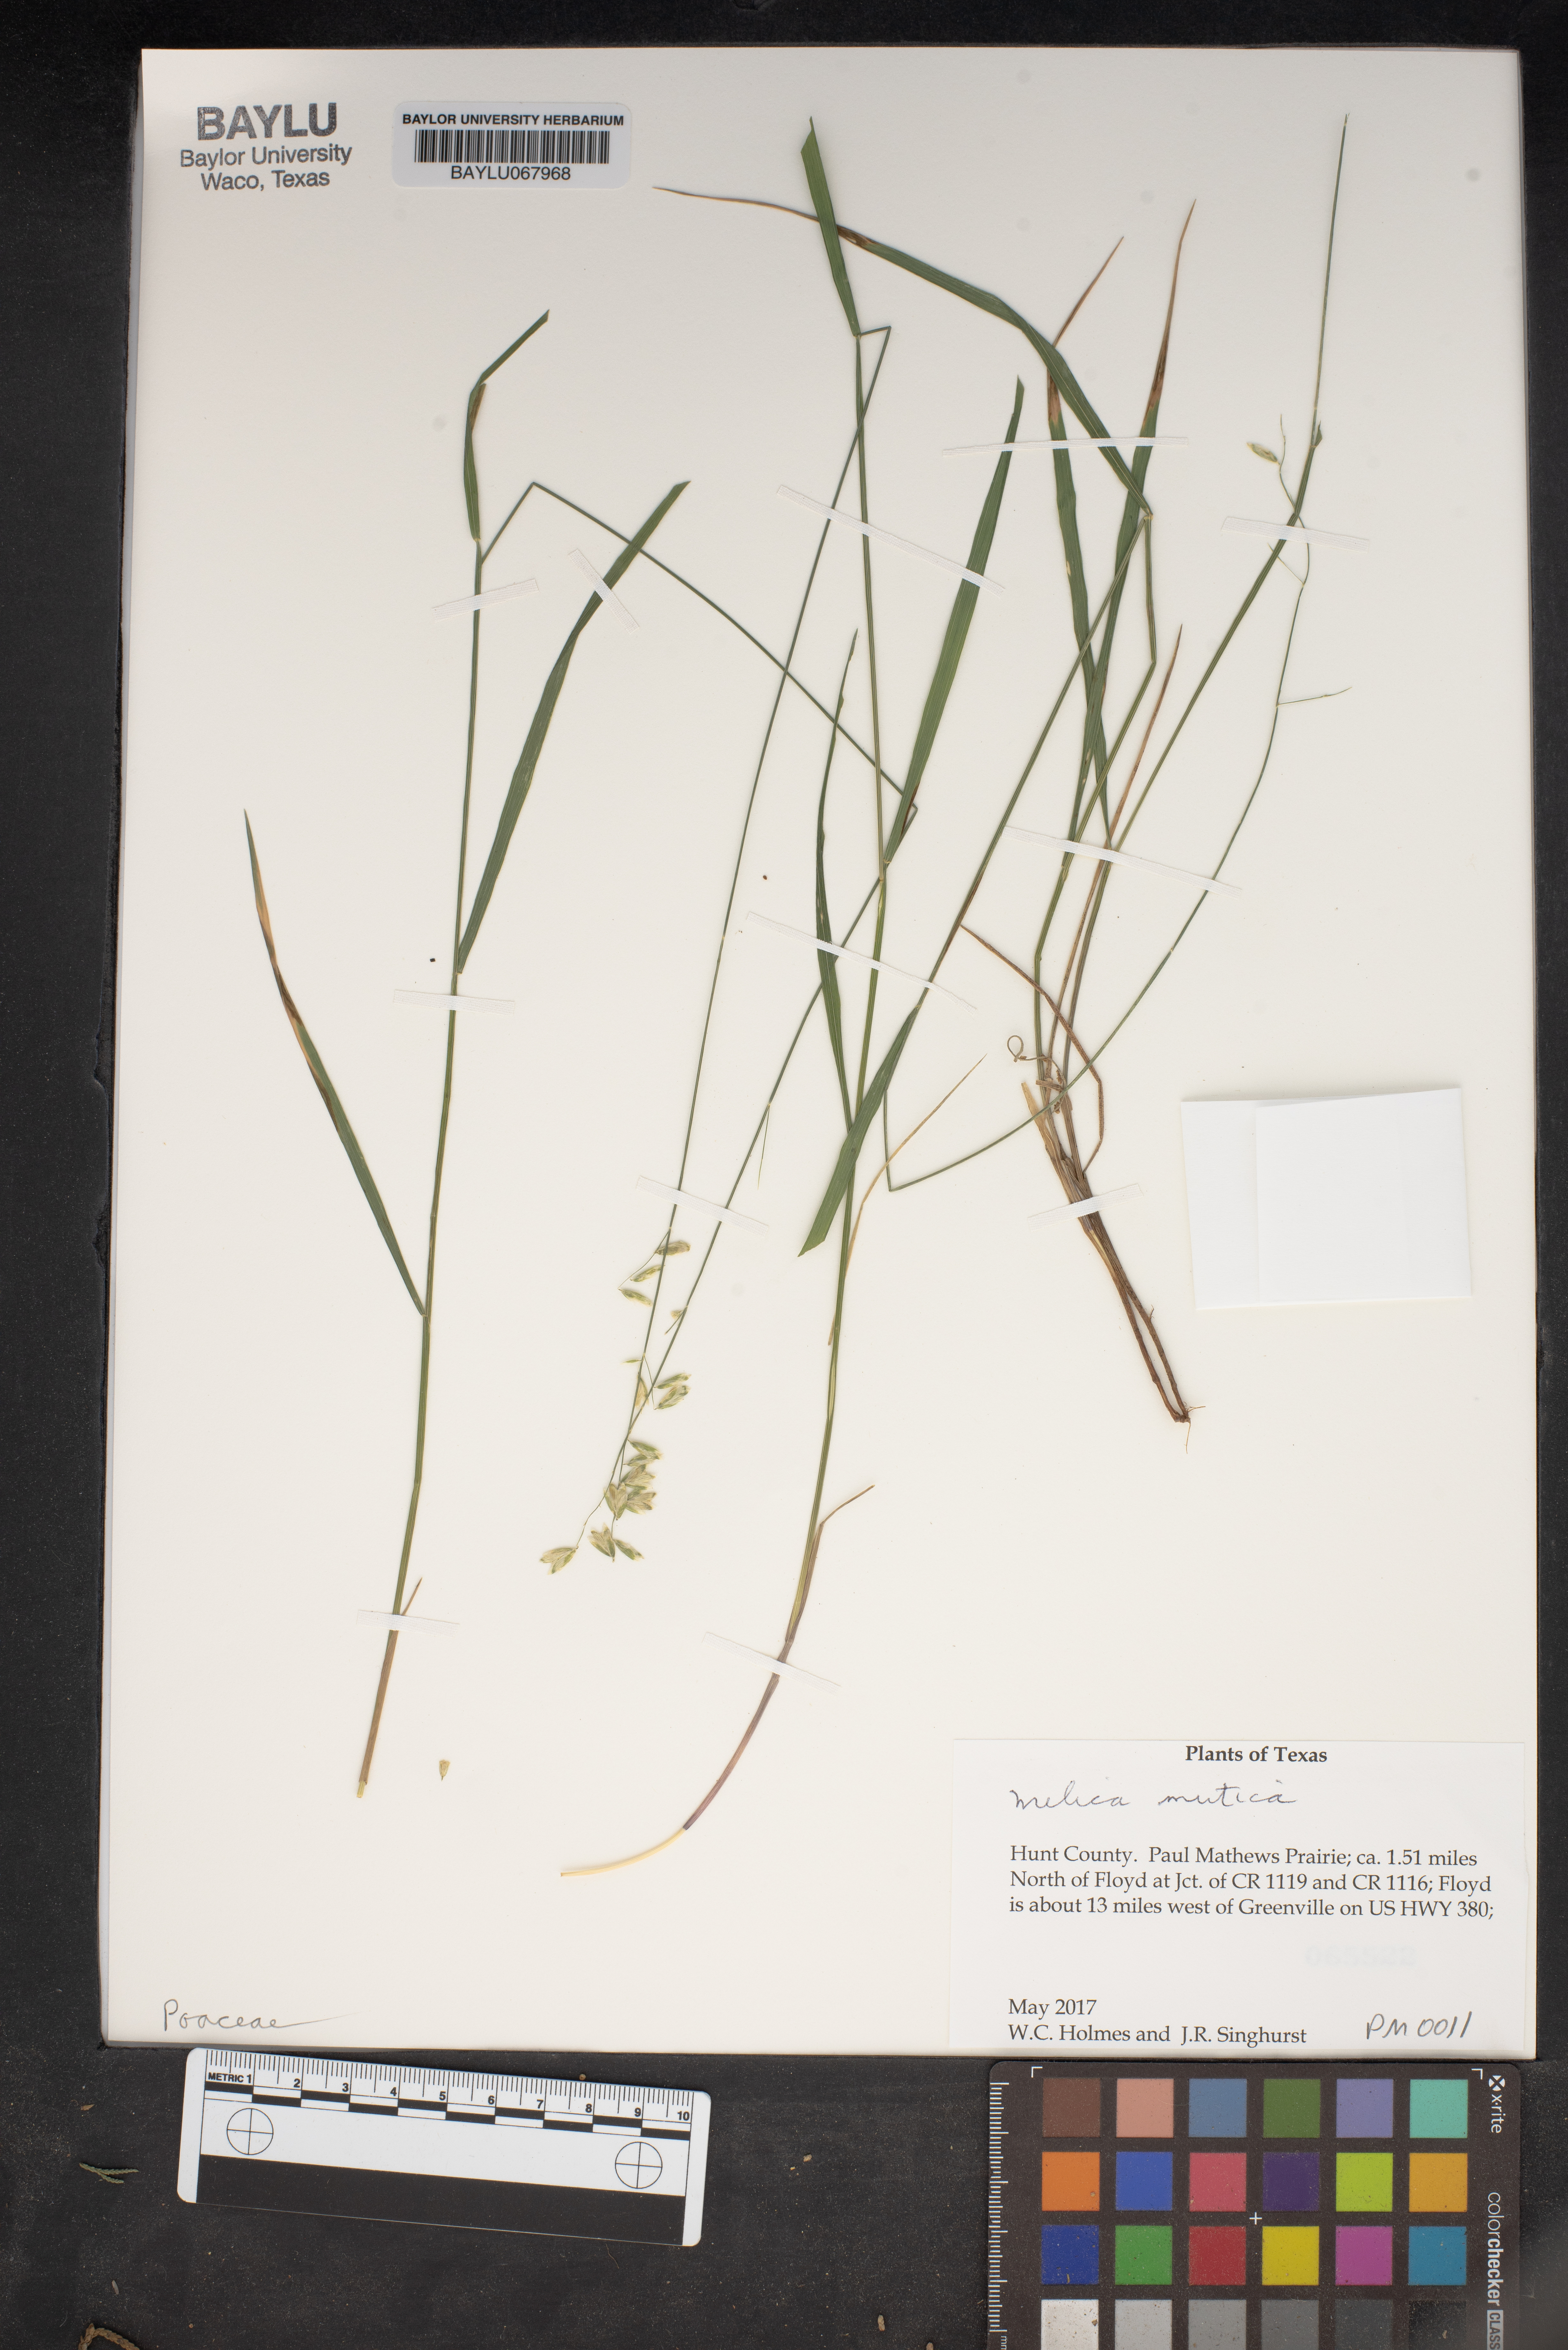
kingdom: Plantae
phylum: Tracheophyta
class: Liliopsida
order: Poales
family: Poaceae
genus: Melica
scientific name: Melica mutica
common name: Two-flower melic
